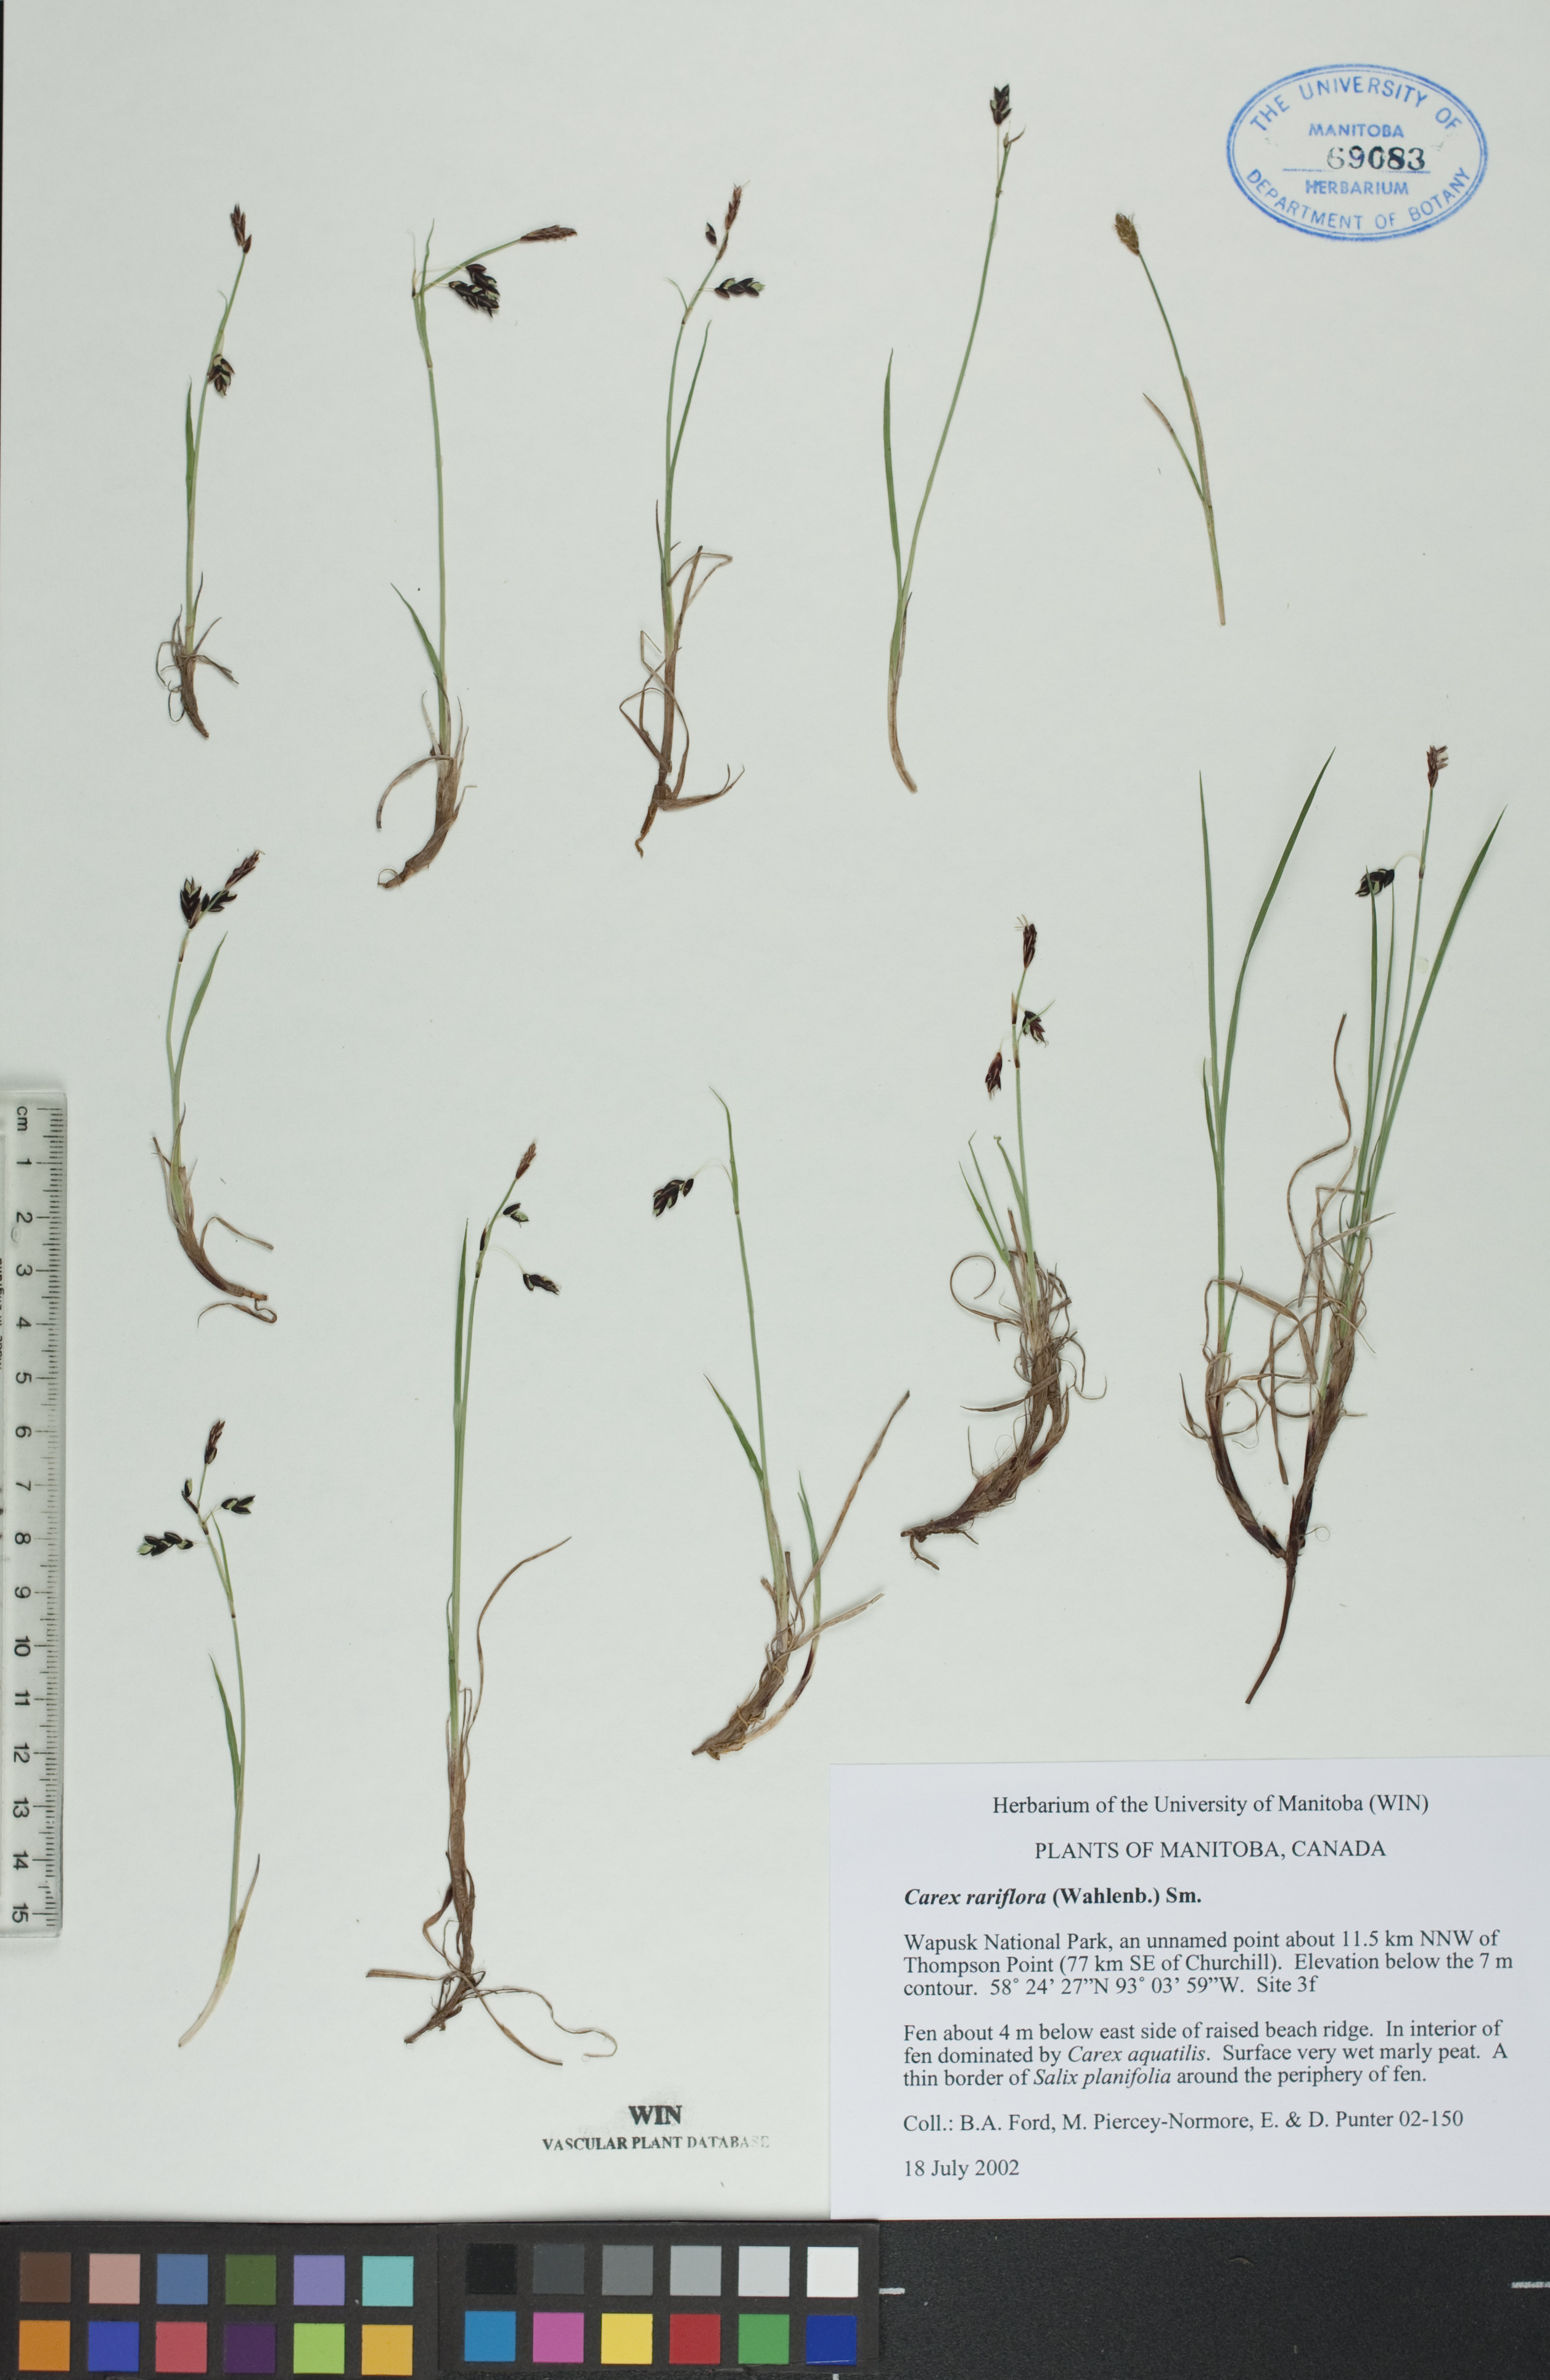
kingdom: Plantae
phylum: Tracheophyta
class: Liliopsida
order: Poales
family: Cyperaceae
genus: Carex
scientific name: Carex rariflora
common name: Loose-flowered alpine sedge
